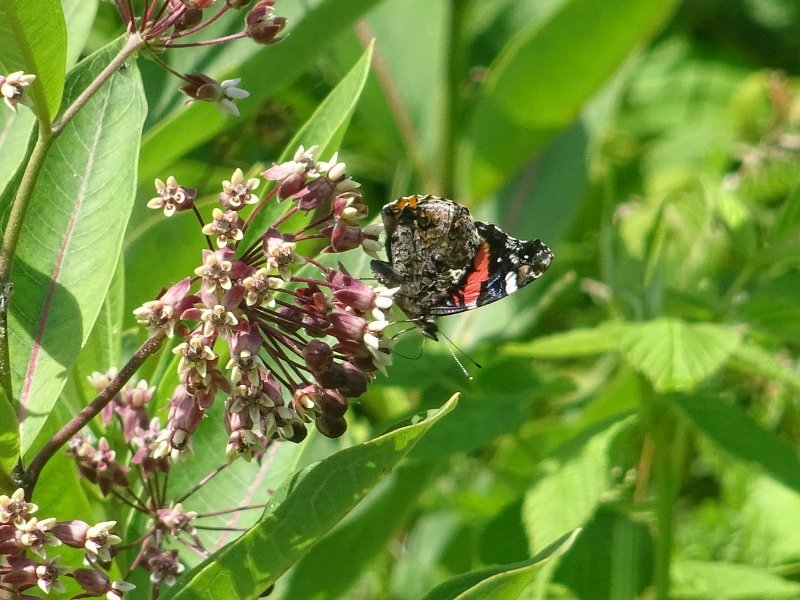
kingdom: Animalia
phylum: Arthropoda
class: Insecta
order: Lepidoptera
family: Nymphalidae
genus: Vanessa
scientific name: Vanessa atalanta
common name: Red Admiral
